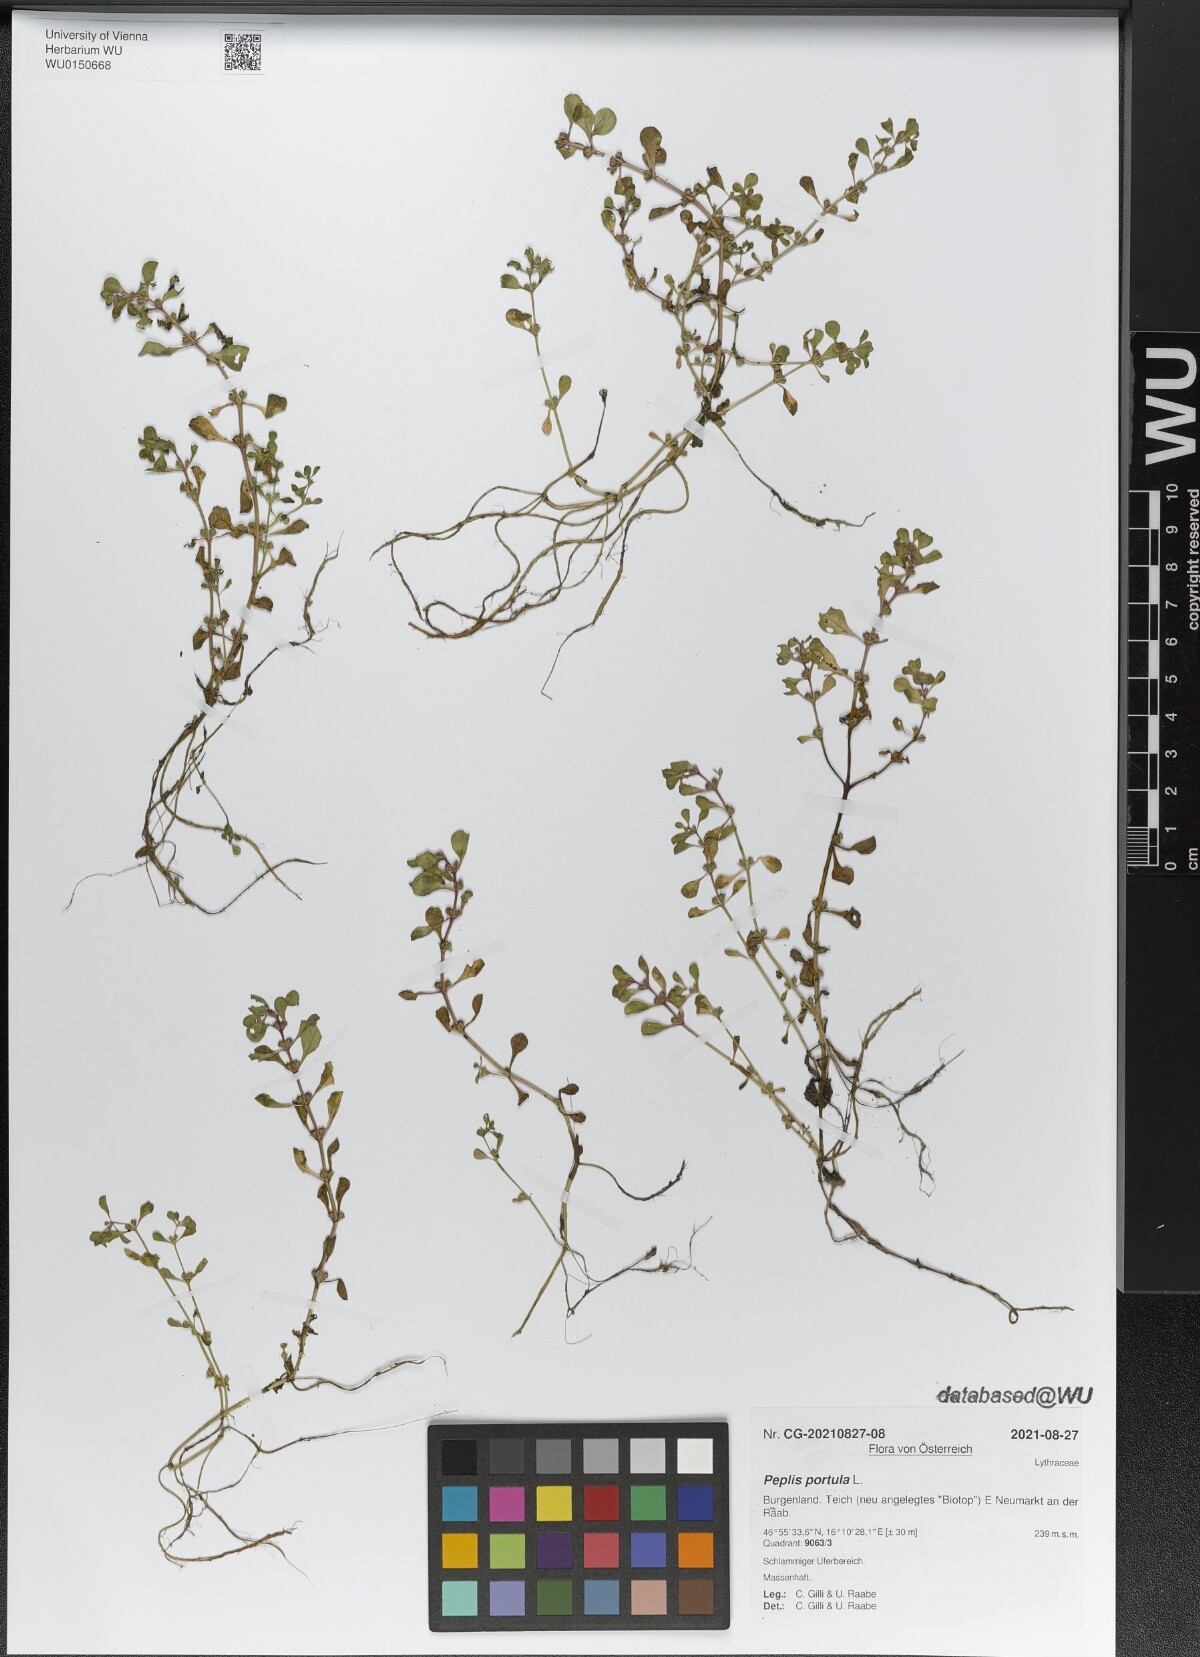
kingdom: Plantae
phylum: Tracheophyta
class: Magnoliopsida
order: Myrtales
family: Lythraceae
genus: Lythrum
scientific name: Lythrum portula
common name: Water purslane
